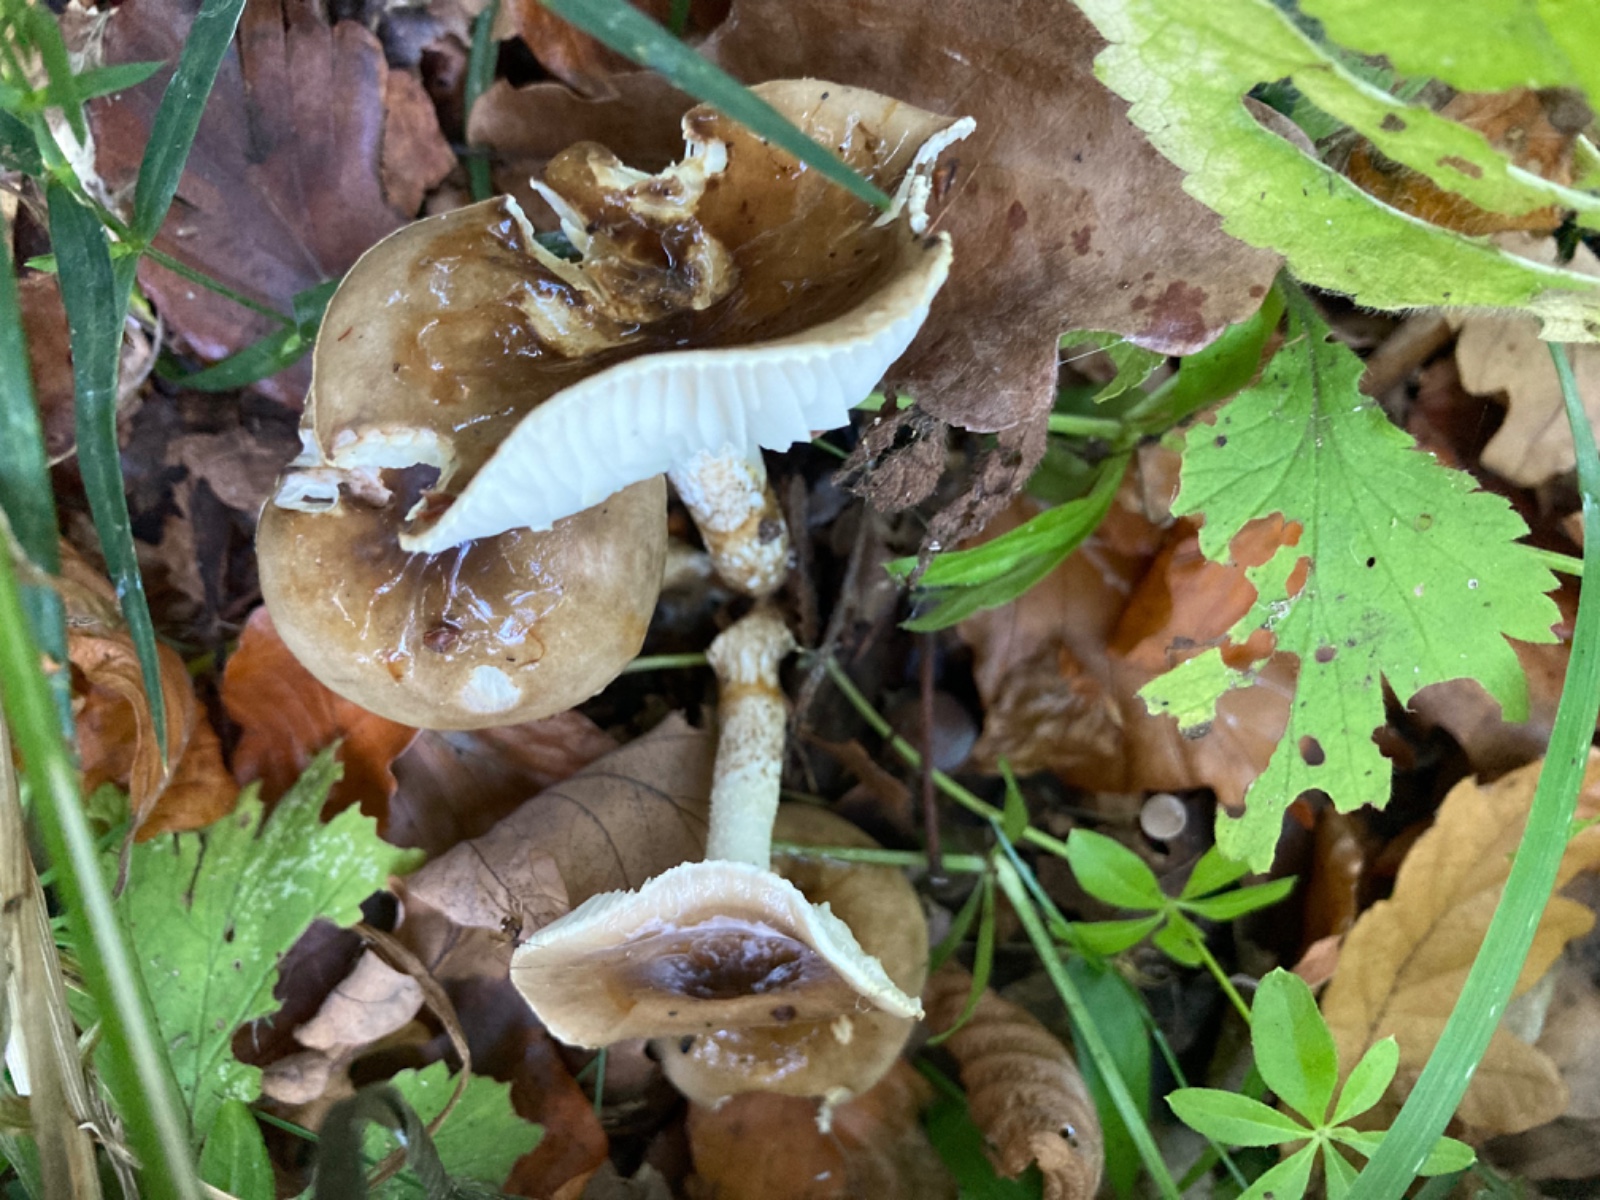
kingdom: Fungi
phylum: Basidiomycota
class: Agaricomycetes
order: Agaricales
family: Hygrophoraceae
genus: Hygrophorus
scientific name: Hygrophorus glutinifer
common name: tvefarvet sneglehat
